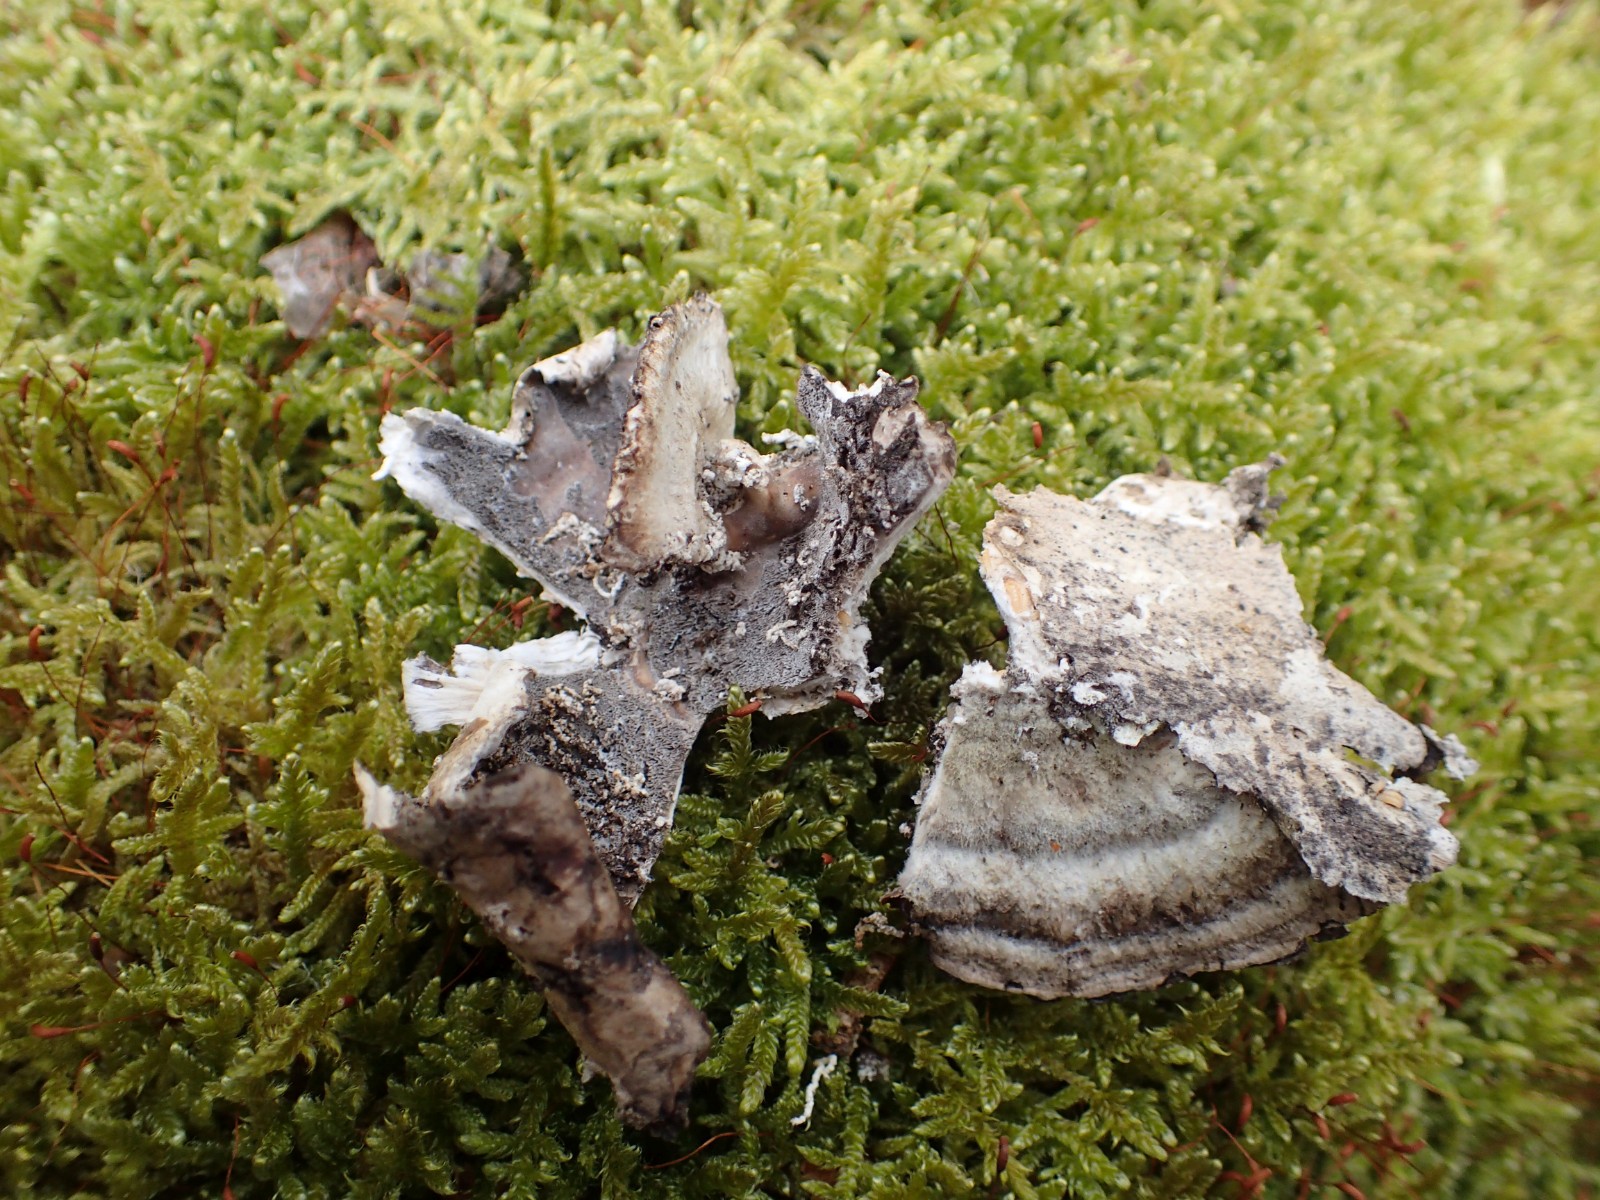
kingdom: Fungi
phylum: Basidiomycota
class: Agaricomycetes
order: Polyporales
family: Phanerochaetaceae
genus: Bjerkandera
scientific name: Bjerkandera adusta
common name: sveden sodporesvamp
